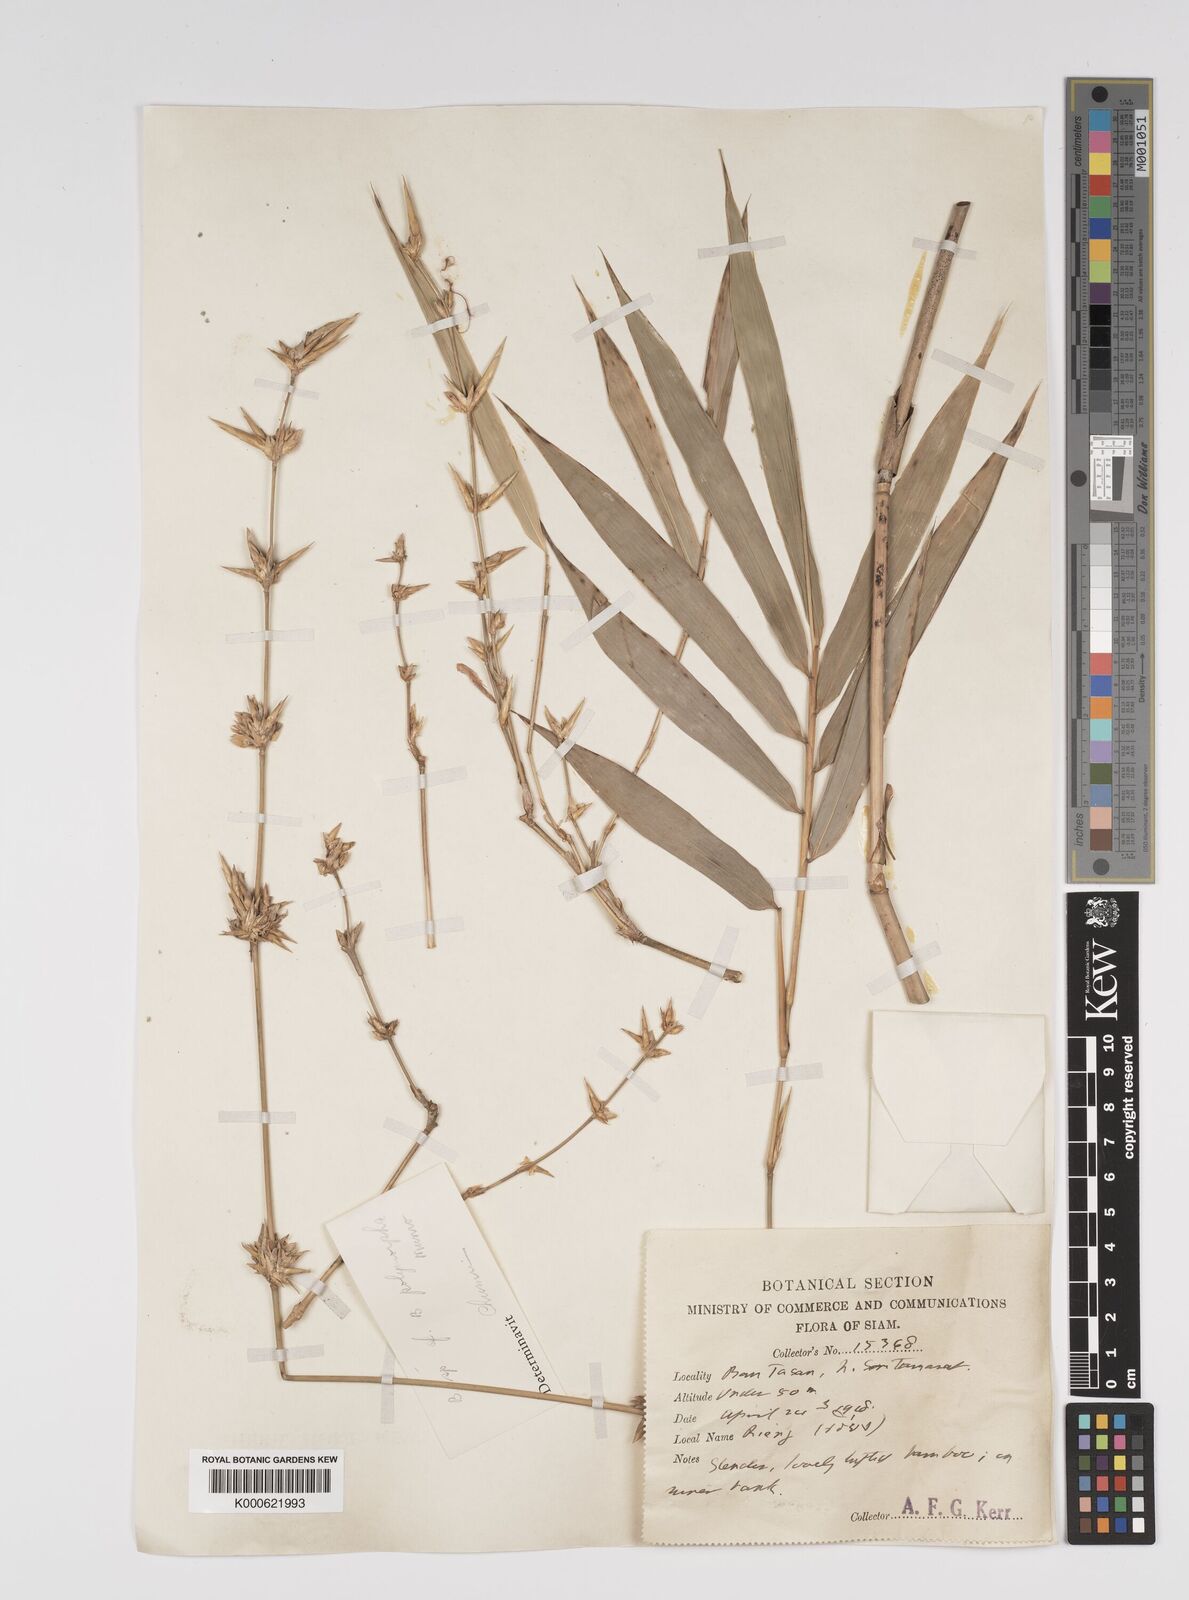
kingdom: Plantae
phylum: Tracheophyta
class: Liliopsida
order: Poales
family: Poaceae
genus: Bambusa
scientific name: Bambusa
